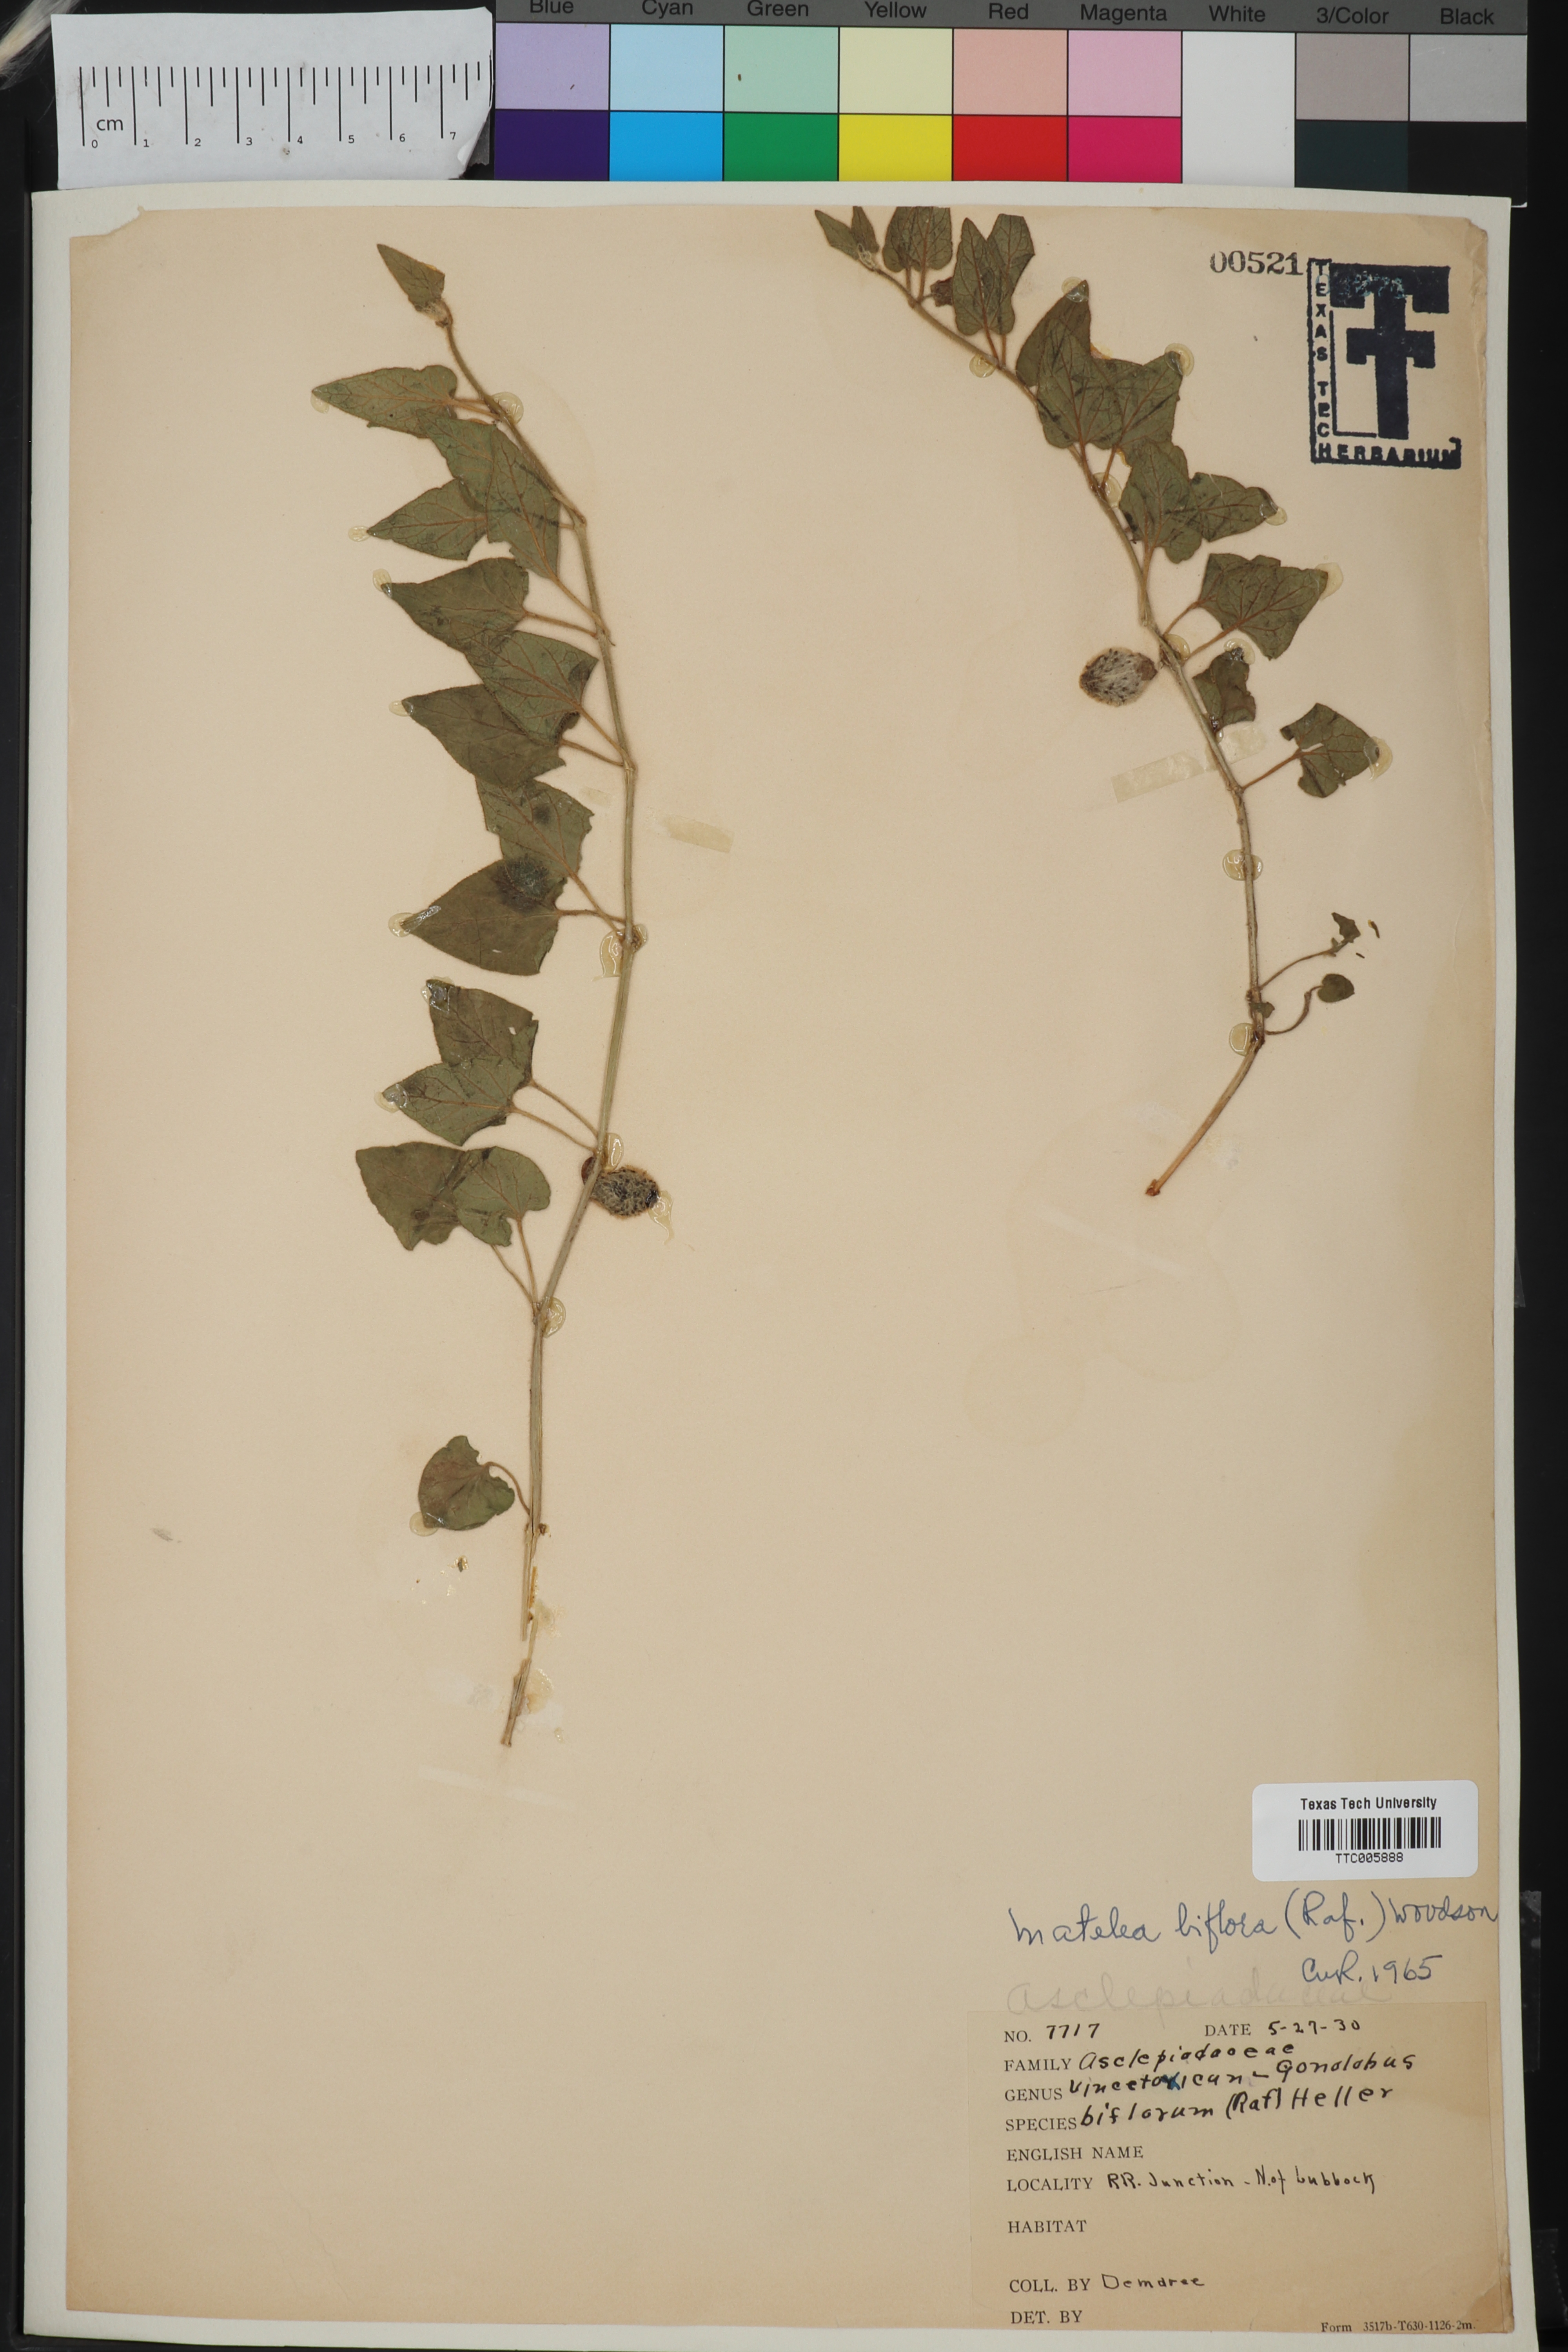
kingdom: Plantae
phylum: Tracheophyta
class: Magnoliopsida
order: Gentianales
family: Apocynaceae
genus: Chthamalia
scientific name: Chthamalia biflora
